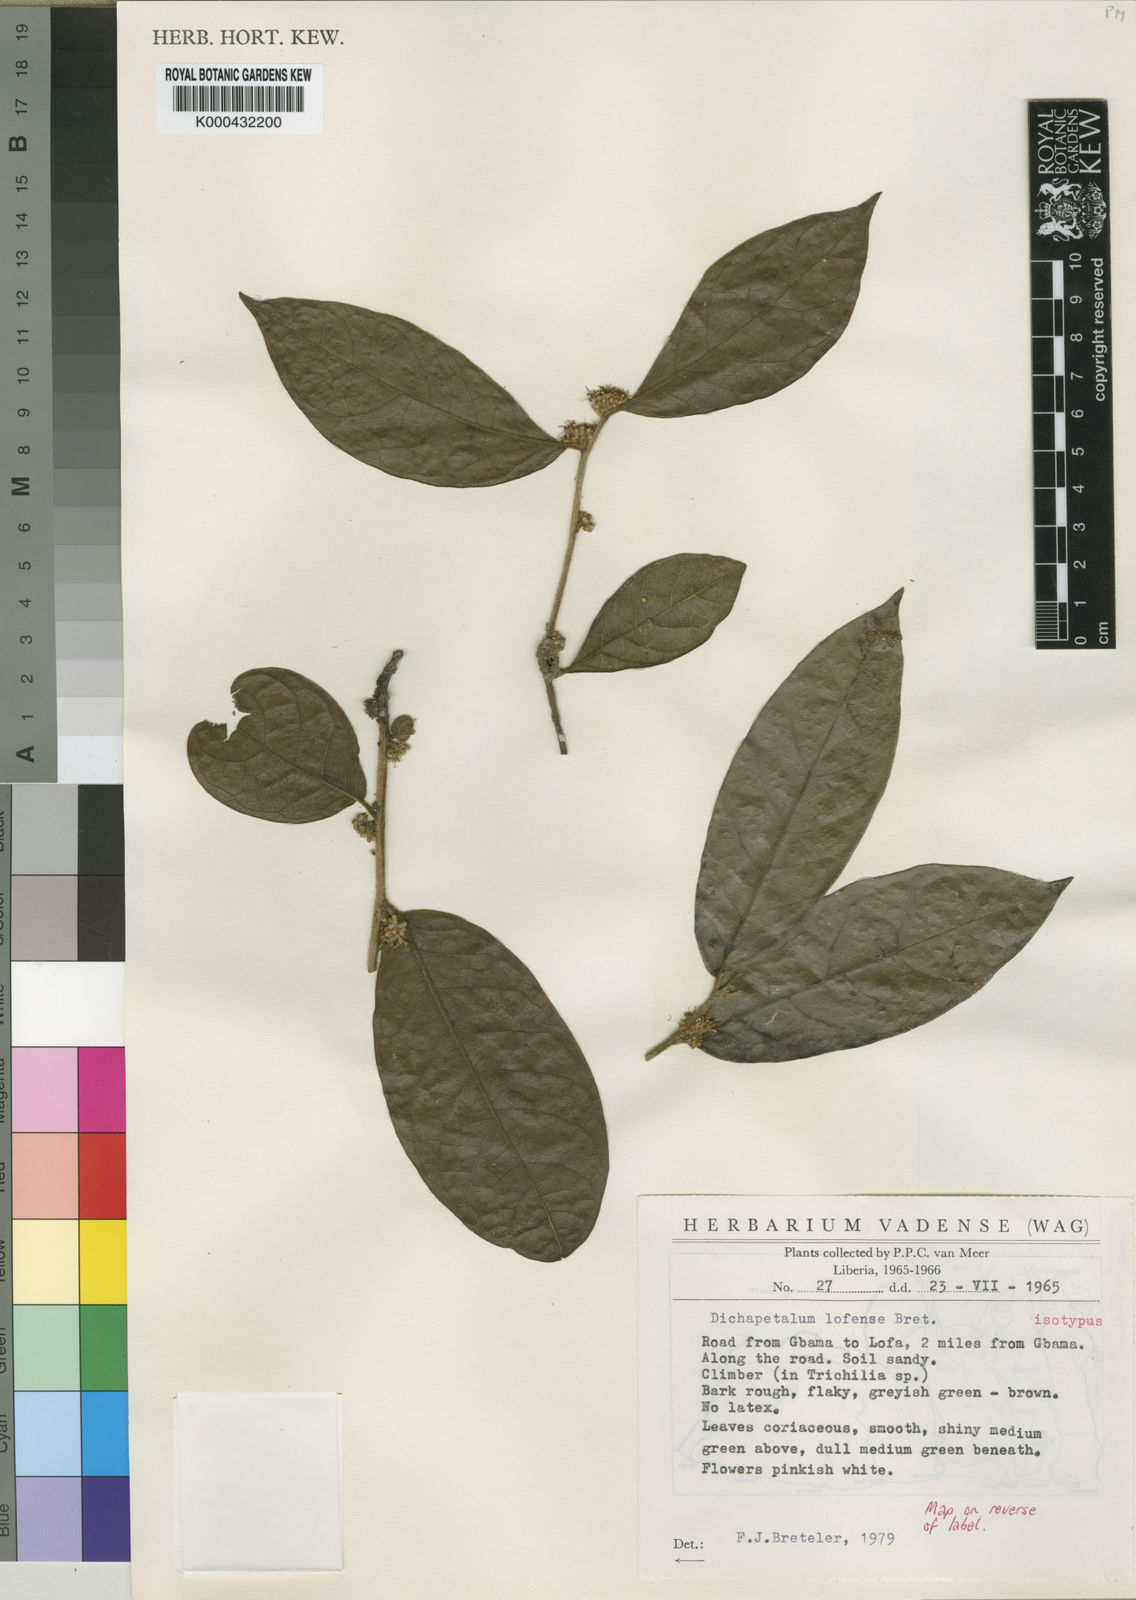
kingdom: Plantae
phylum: Tracheophyta
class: Magnoliopsida
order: Malpighiales
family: Dichapetalaceae
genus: Dichapetalum
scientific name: Dichapetalum lofense
